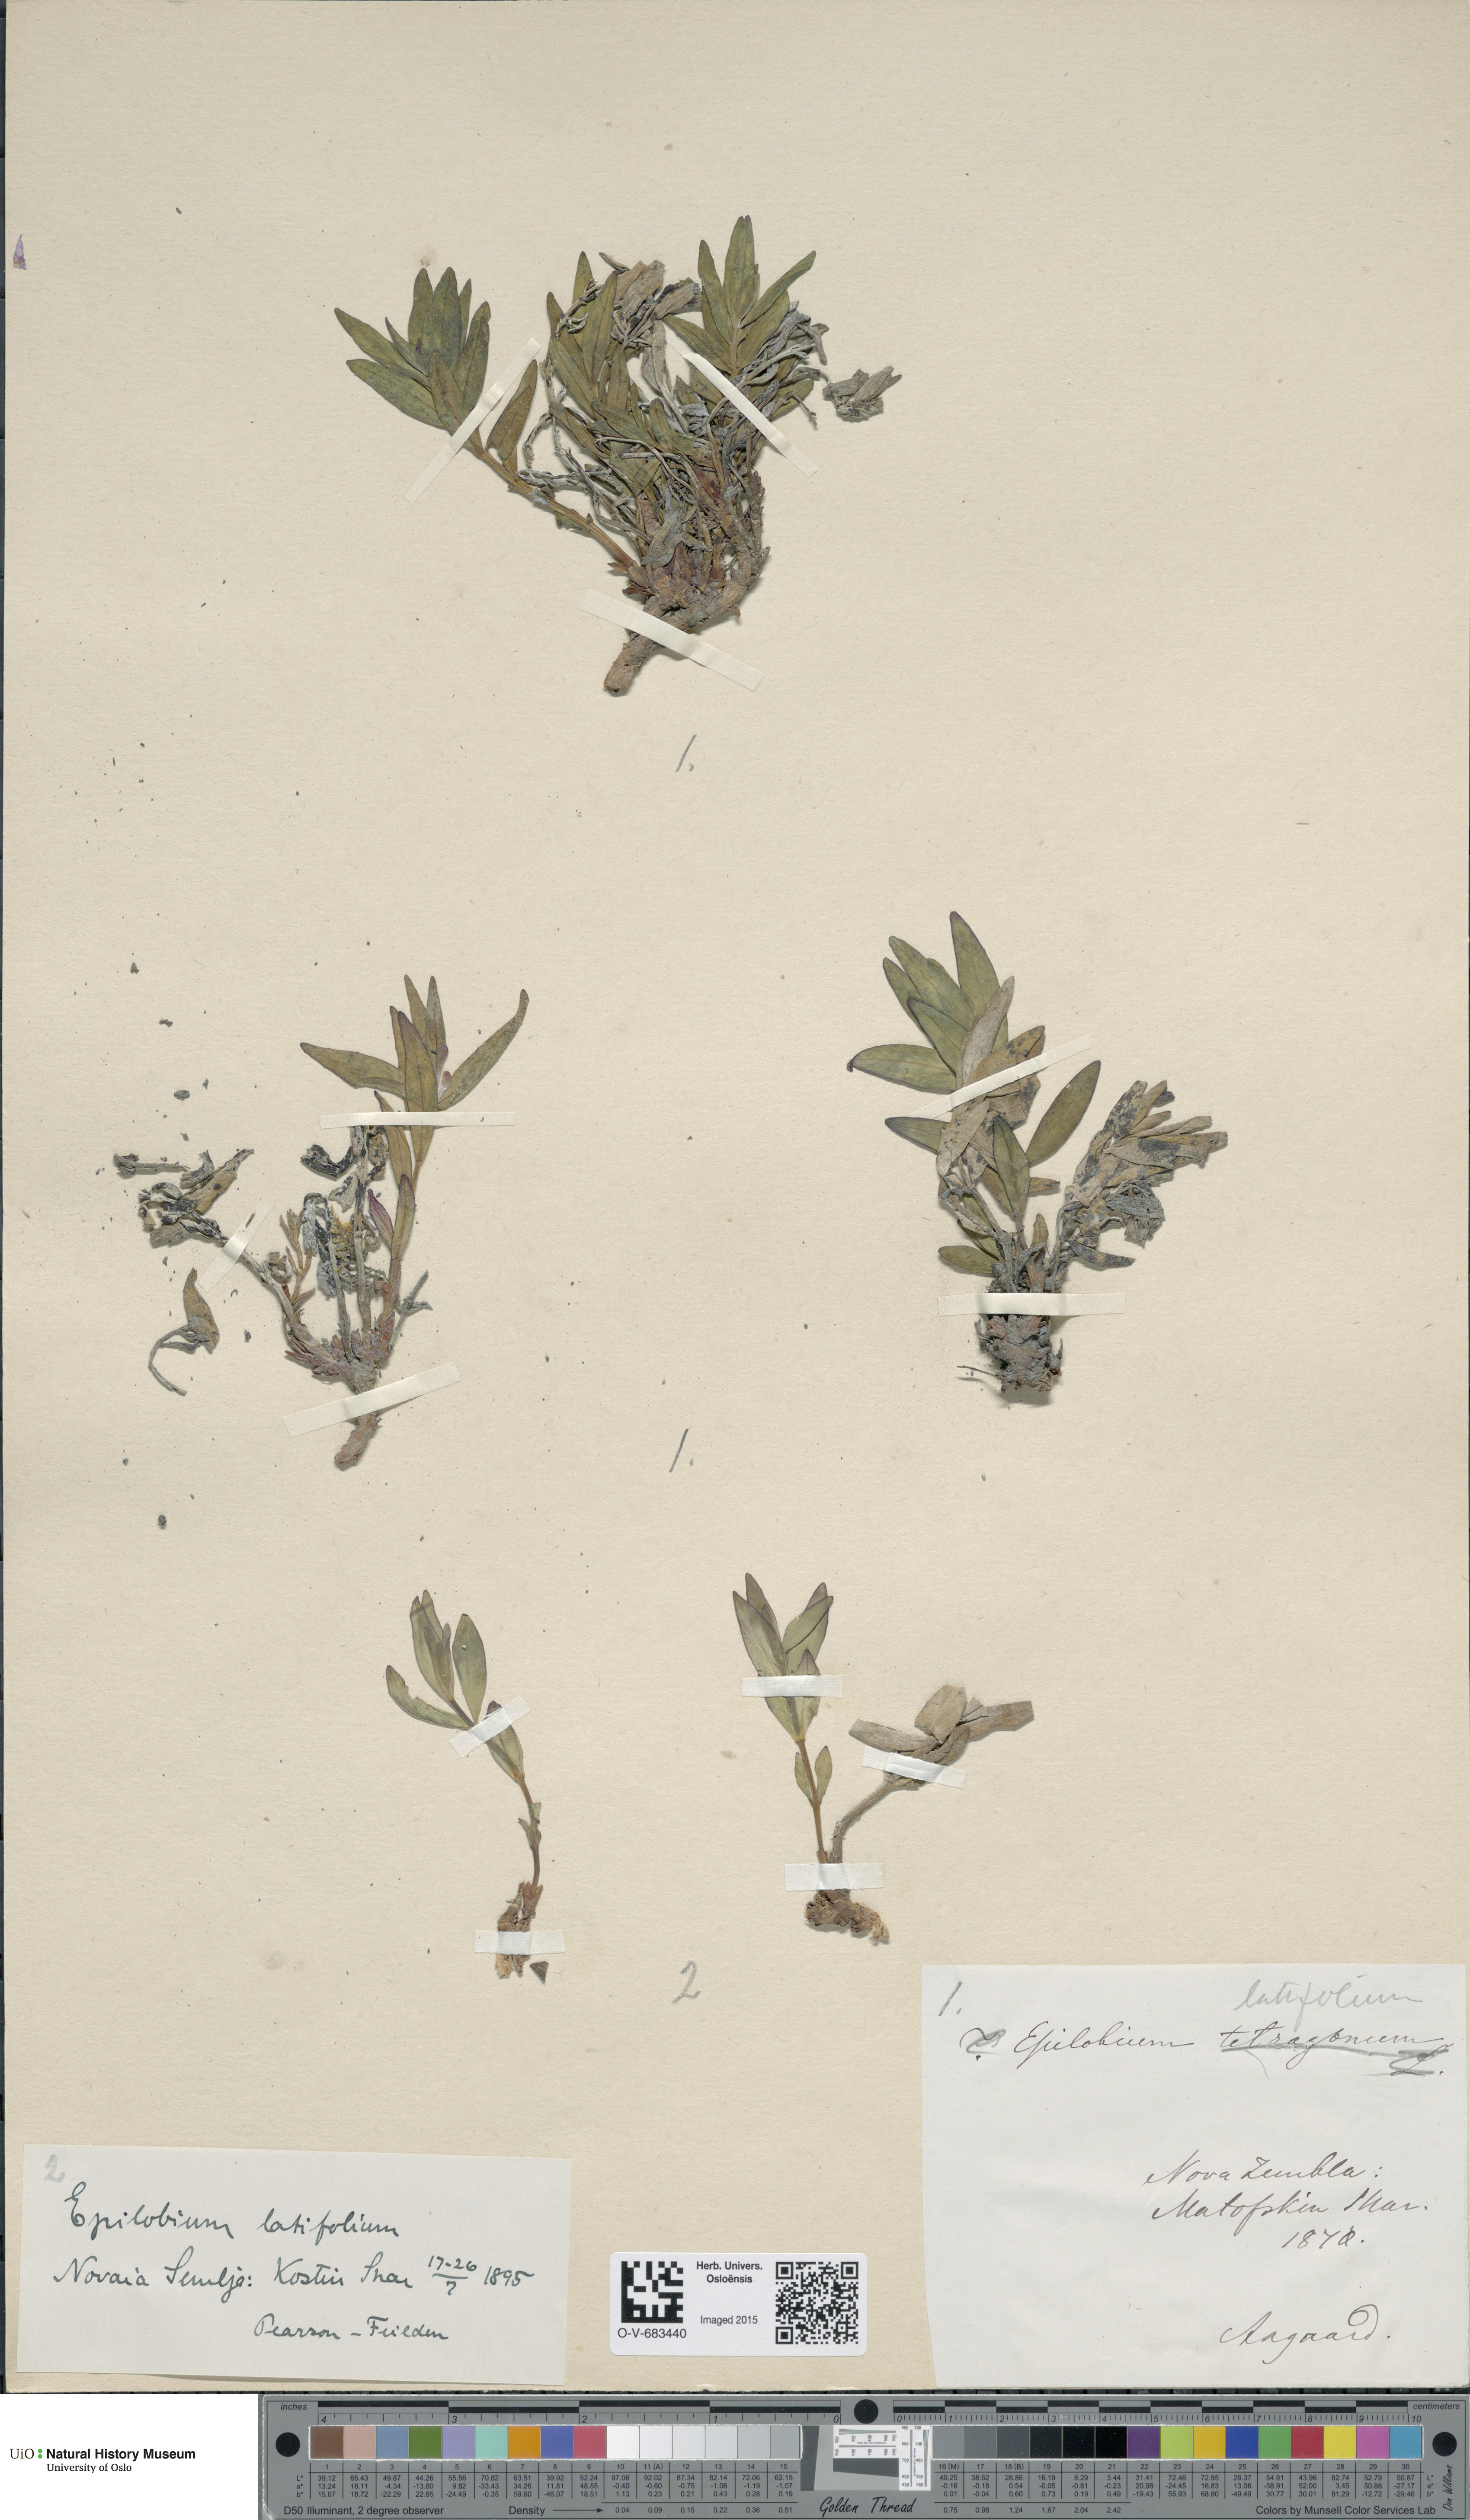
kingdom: Plantae
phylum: Tracheophyta
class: Magnoliopsida
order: Myrtales
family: Onagraceae
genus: Chamaenerion
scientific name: Chamaenerion latifolium
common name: Dwarf fireweed
